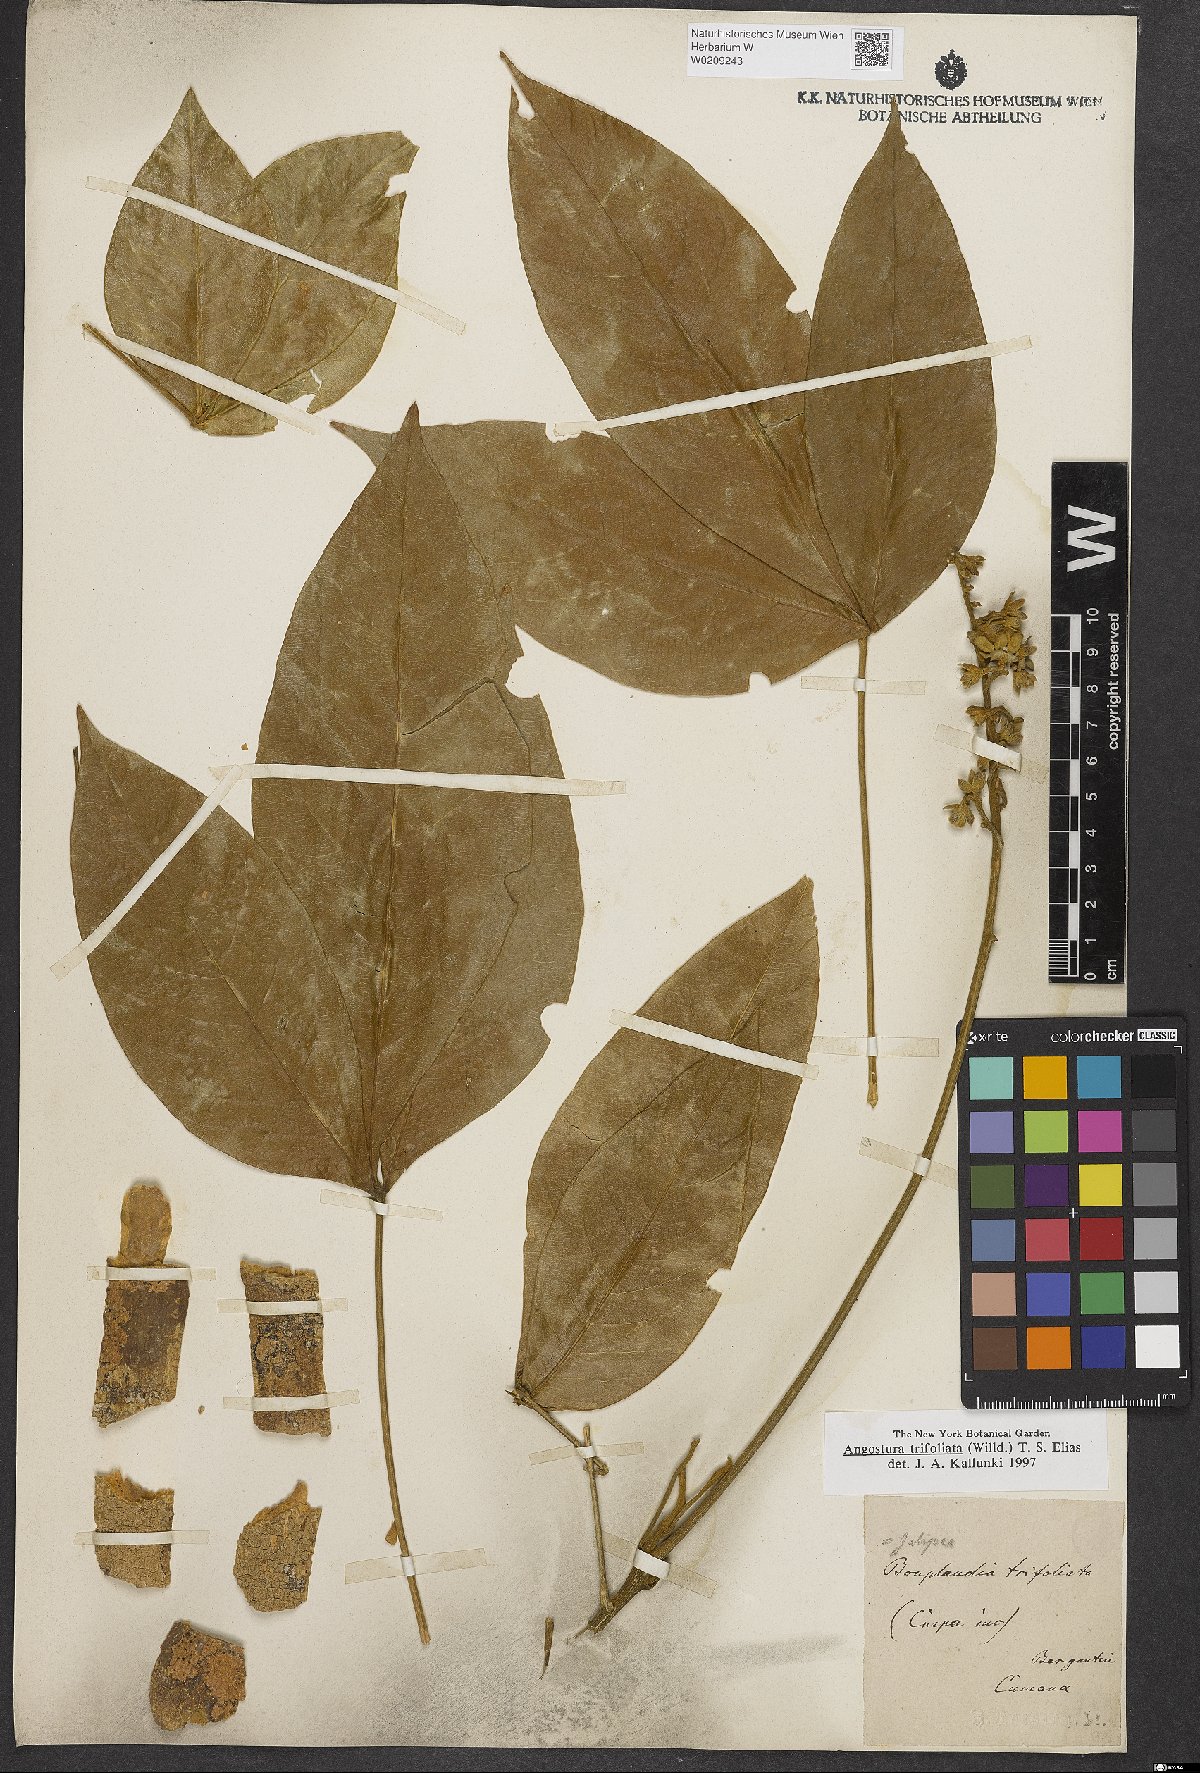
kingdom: Plantae
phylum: Tracheophyta
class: Magnoliopsida
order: Sapindales
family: Rutaceae
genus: Angostura
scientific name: Angostura trifoliata
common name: Angostura
